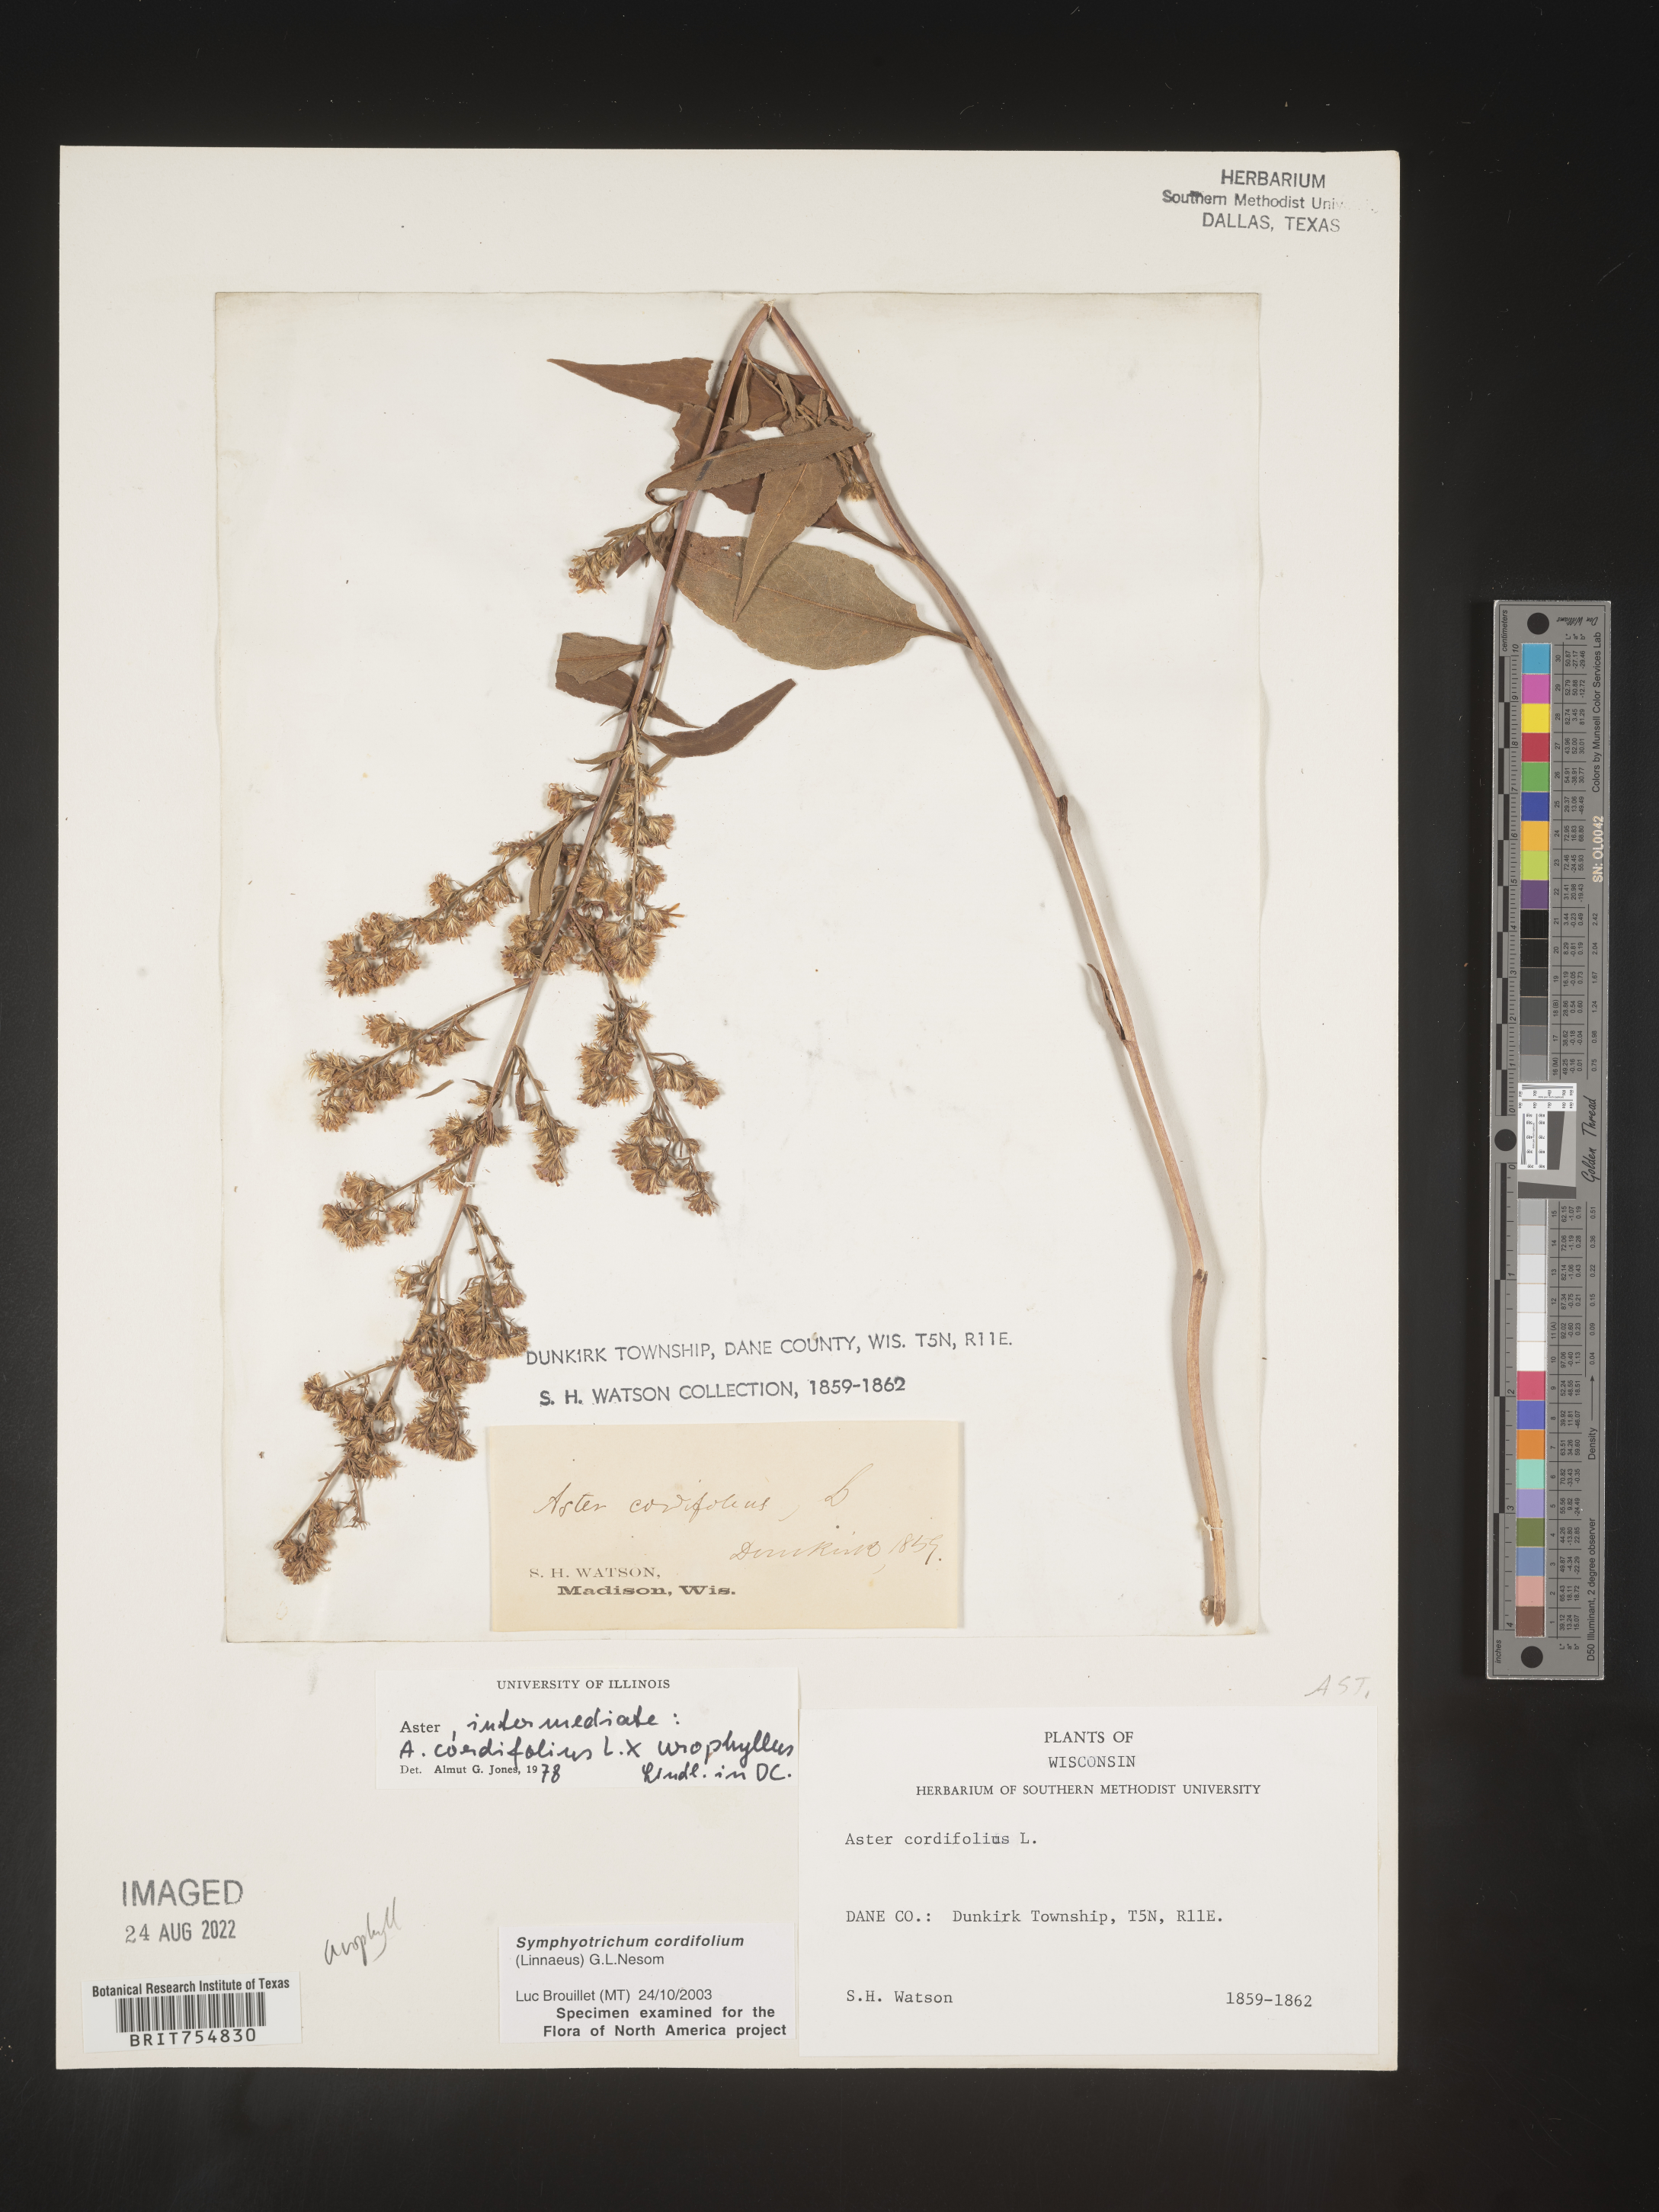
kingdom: Plantae
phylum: Tracheophyta
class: Magnoliopsida
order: Asterales
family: Asteraceae
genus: Symphyotrichum
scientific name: Symphyotrichum urophyllum
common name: Arrow-leaved aster
